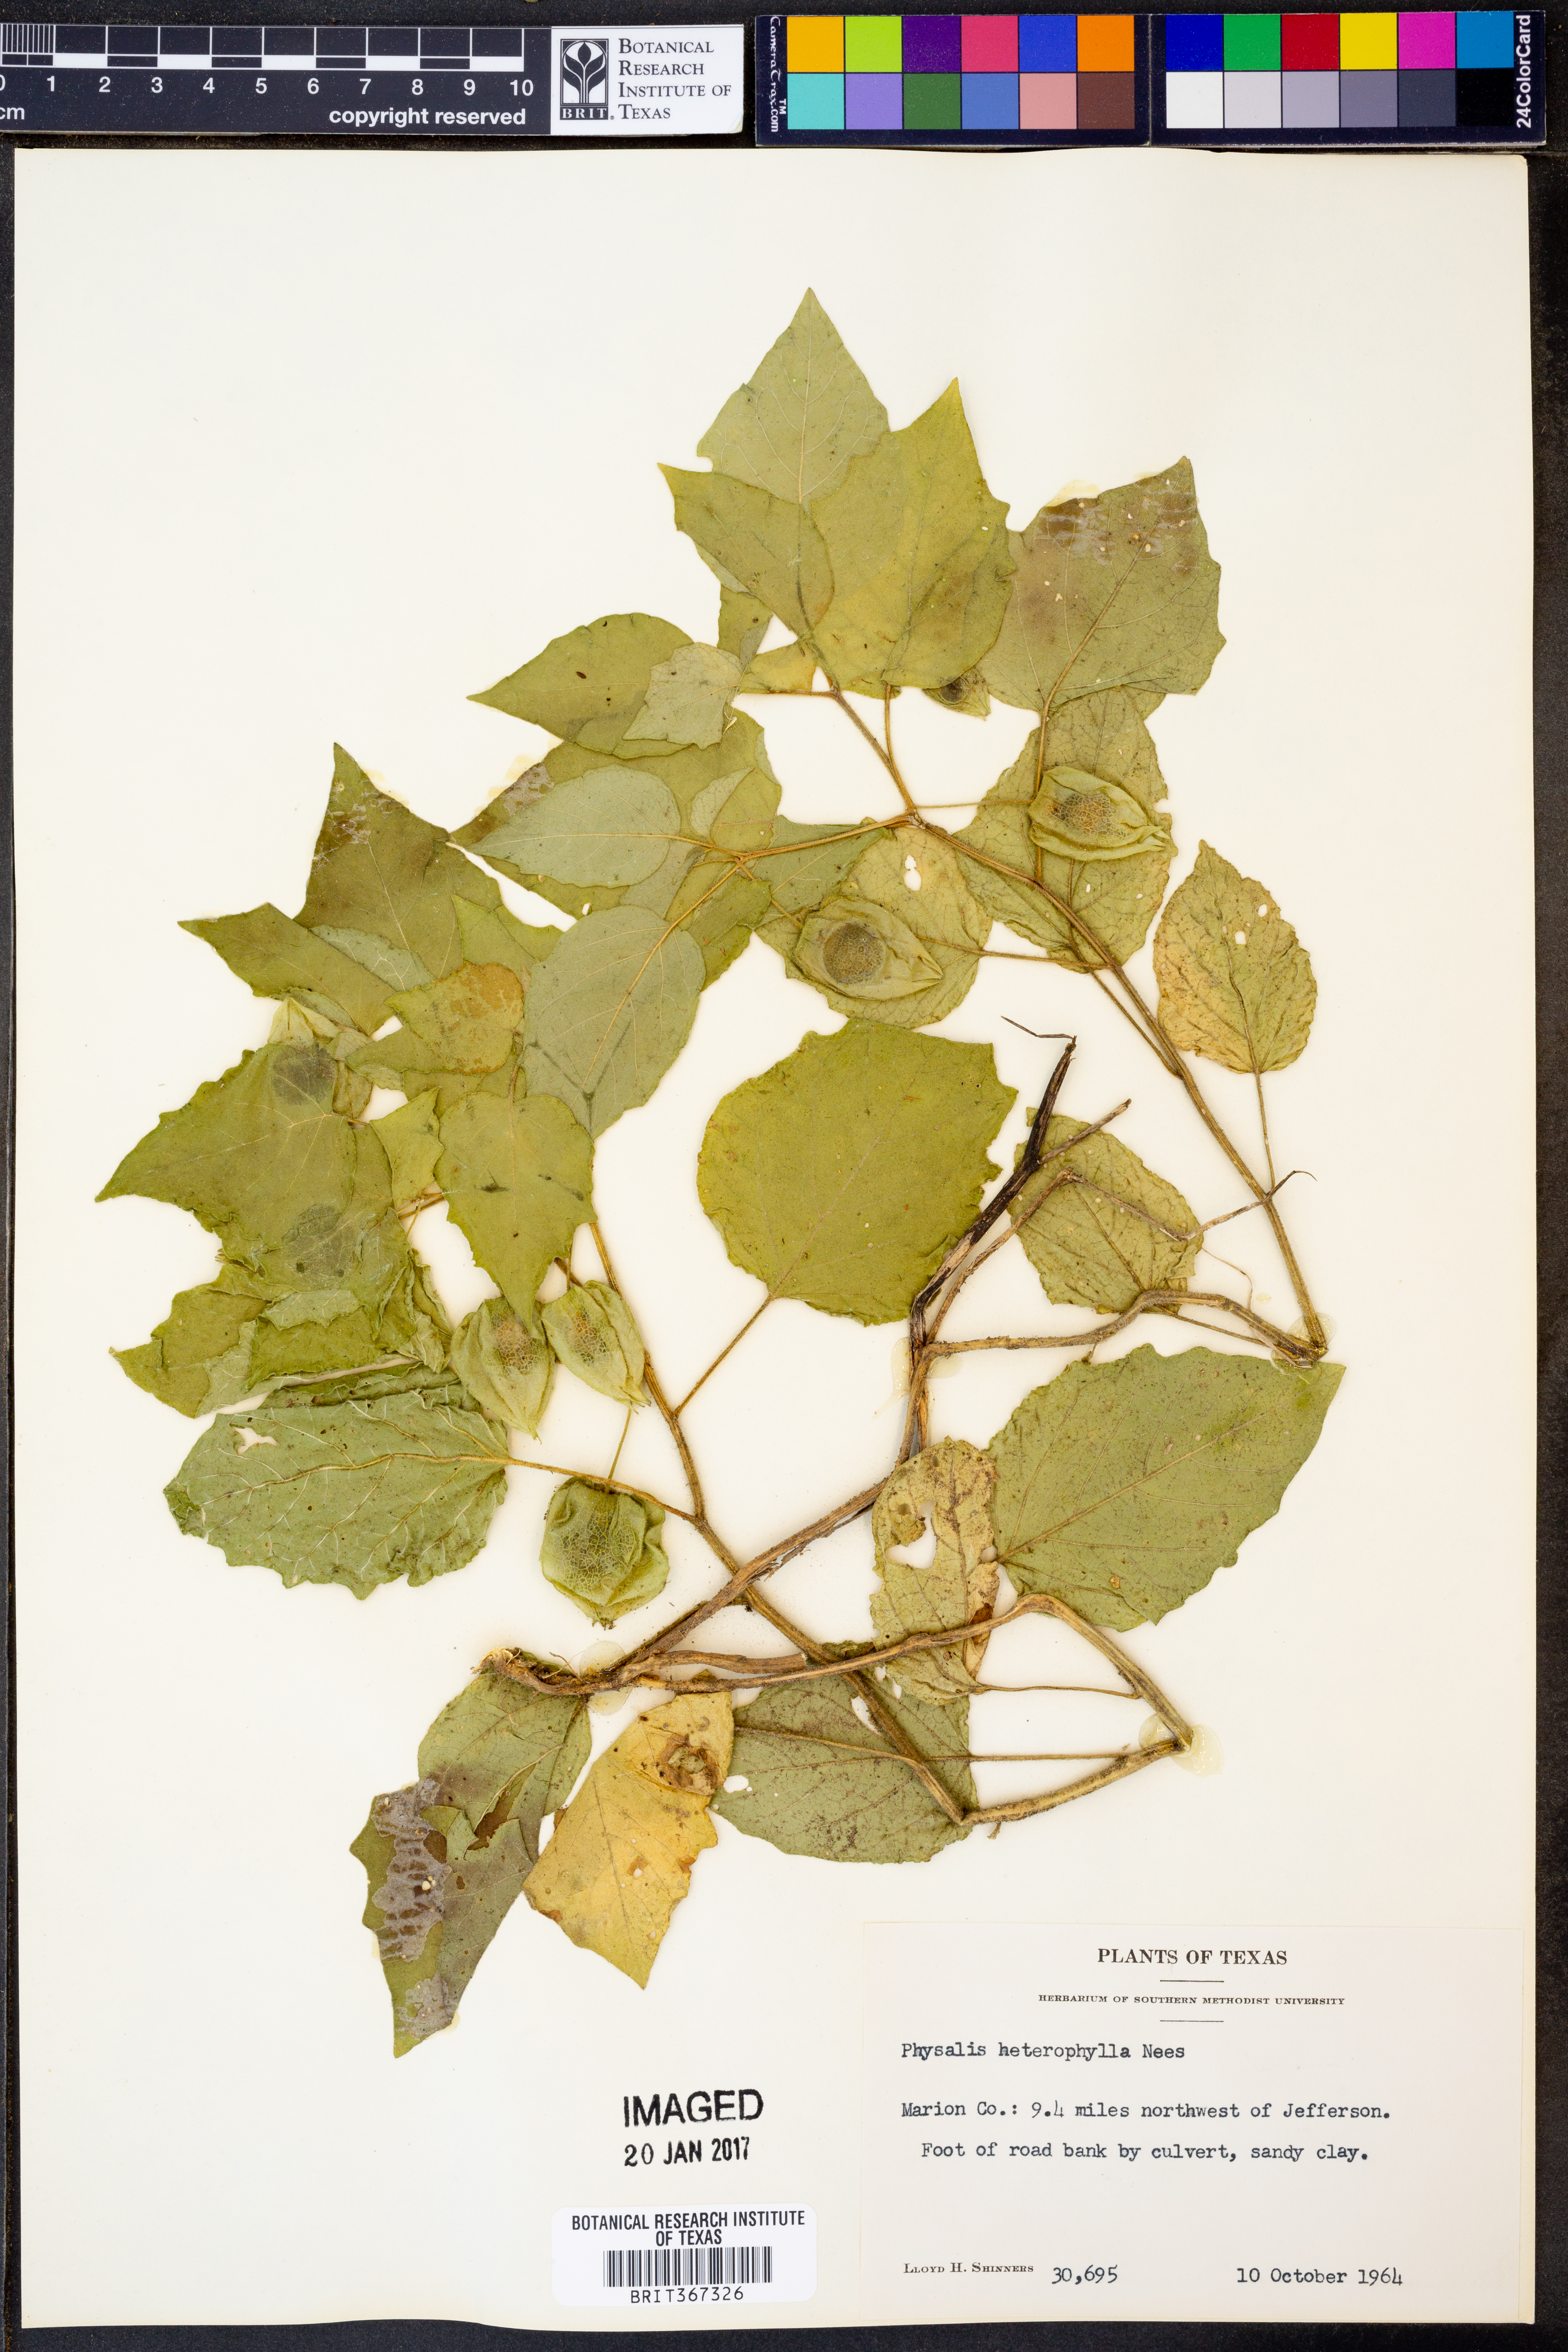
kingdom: Plantae
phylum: Tracheophyta
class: Magnoliopsida
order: Solanales
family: Solanaceae
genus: Physalis
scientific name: Physalis heterophylla
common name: Clammy ground-cherry
